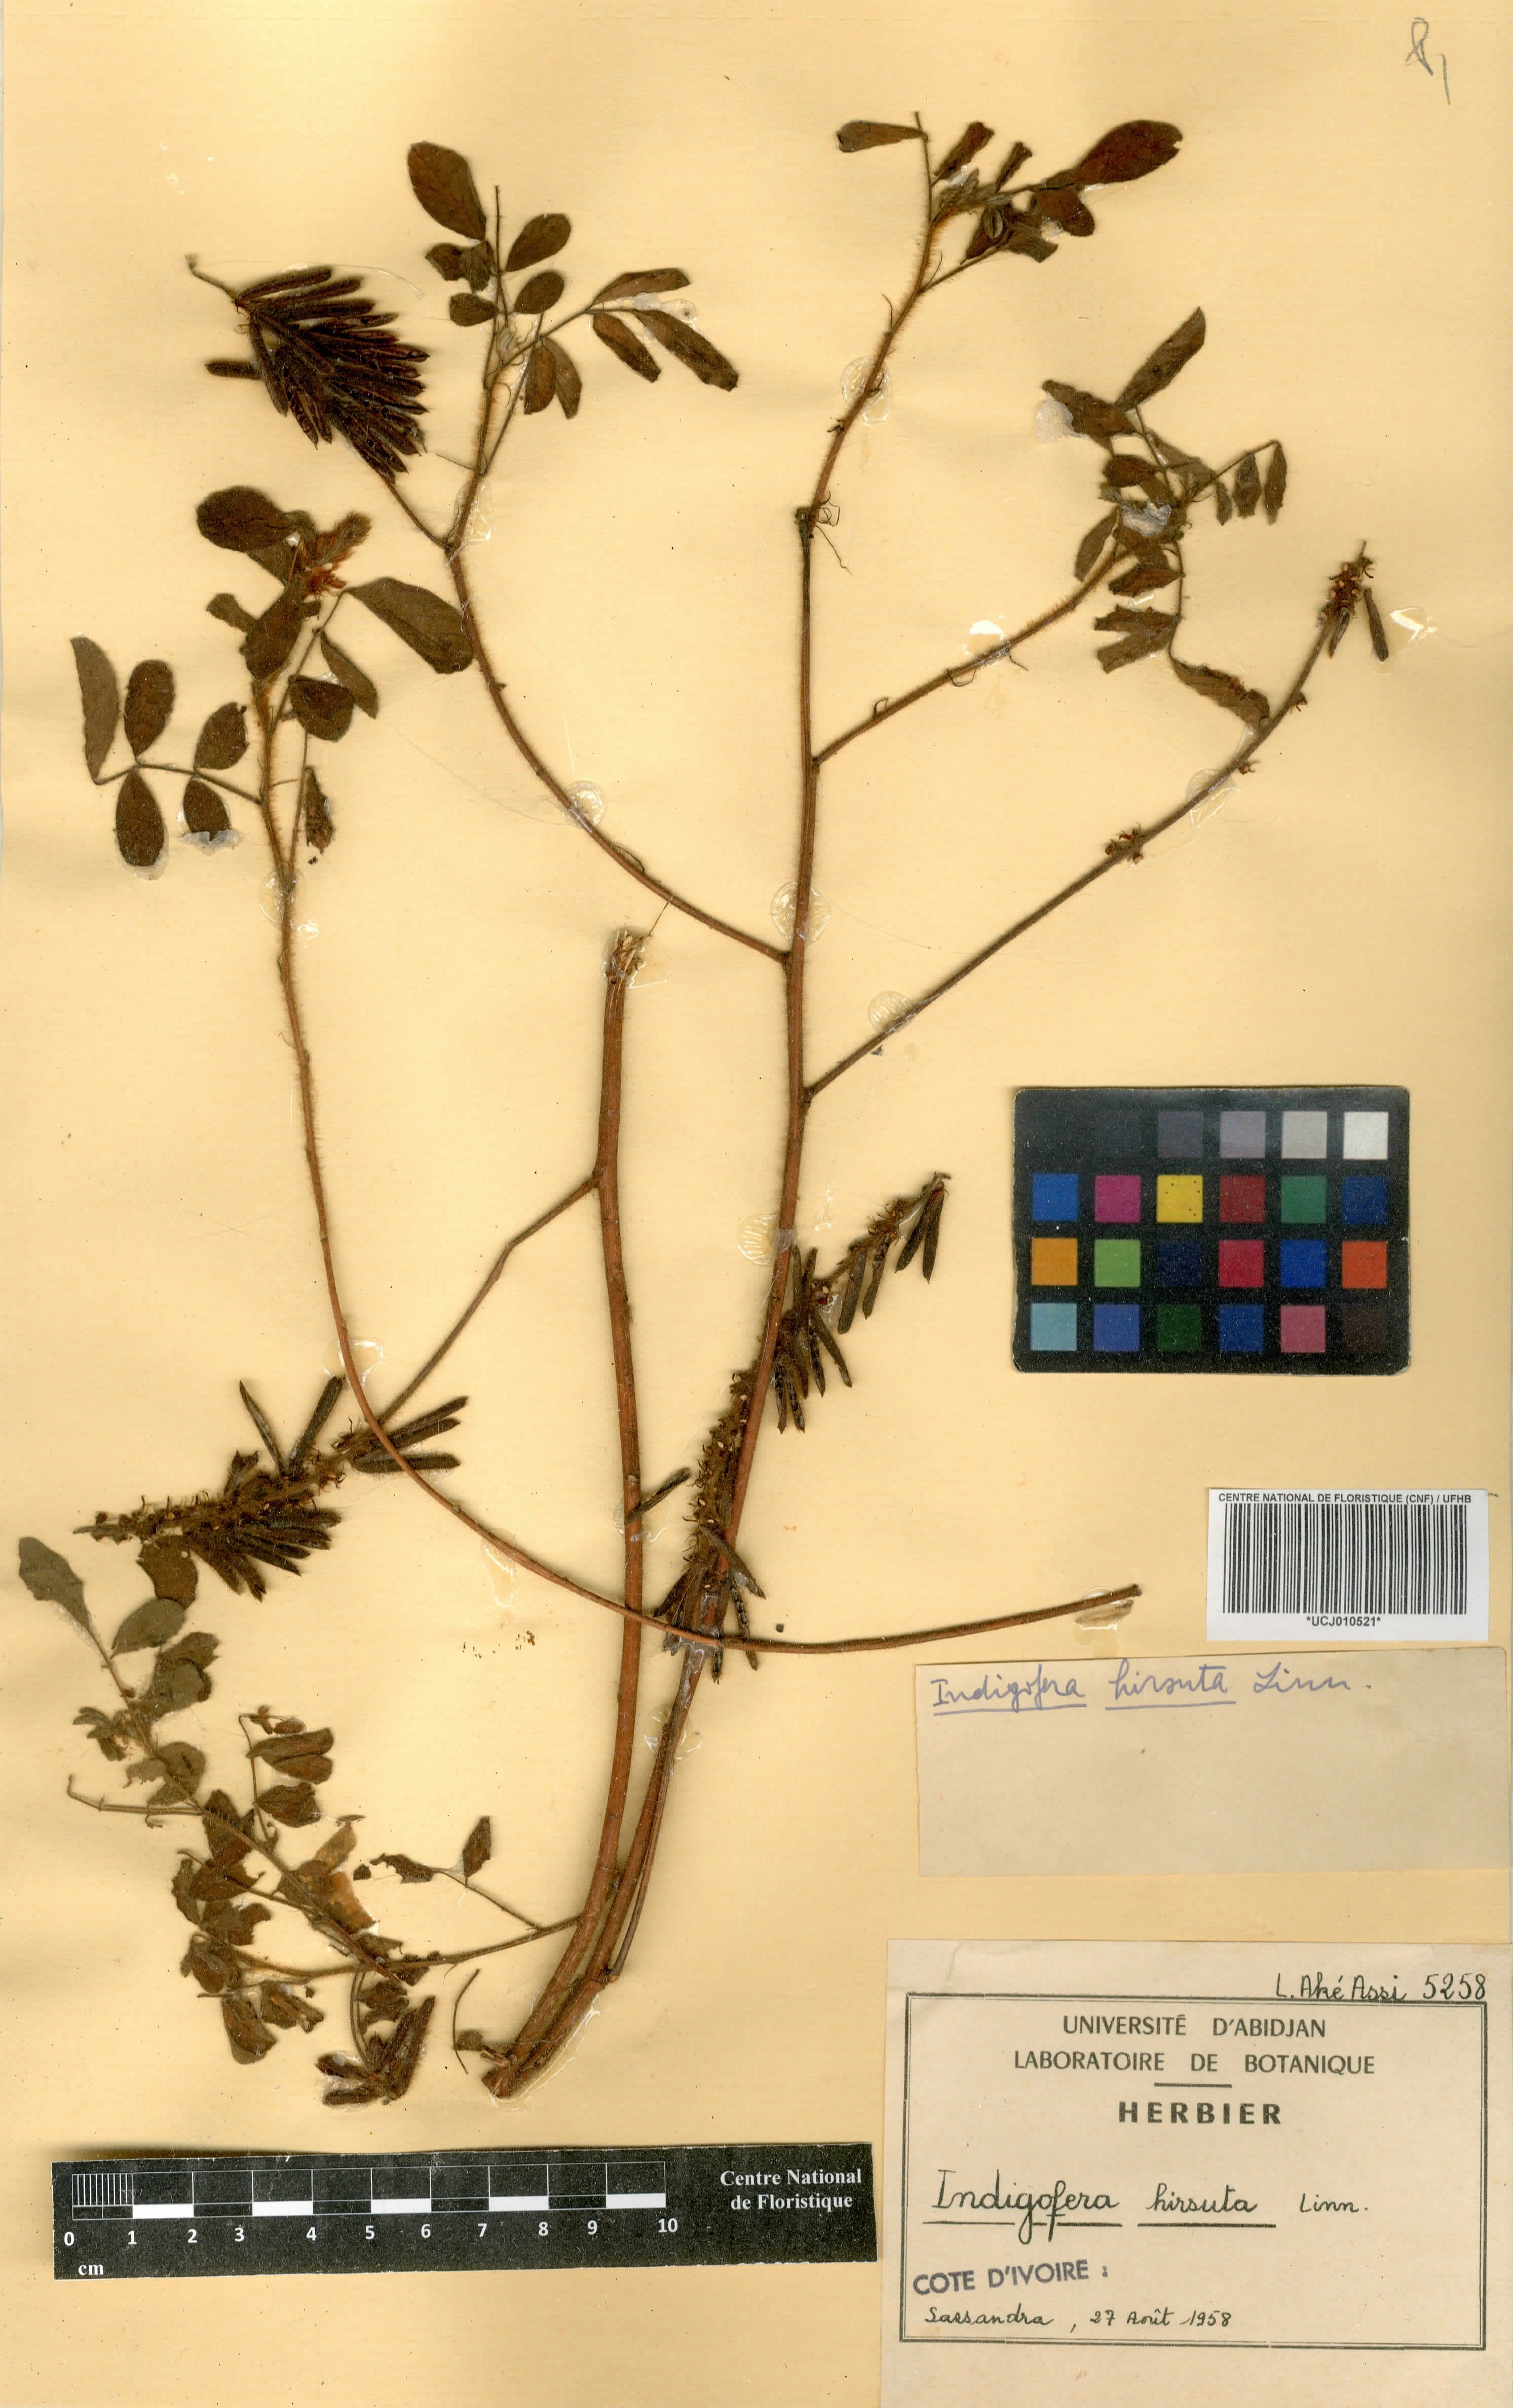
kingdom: Plantae
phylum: Tracheophyta
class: Magnoliopsida
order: Fabales
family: Fabaceae
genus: Indigofera
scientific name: Indigofera geminata
